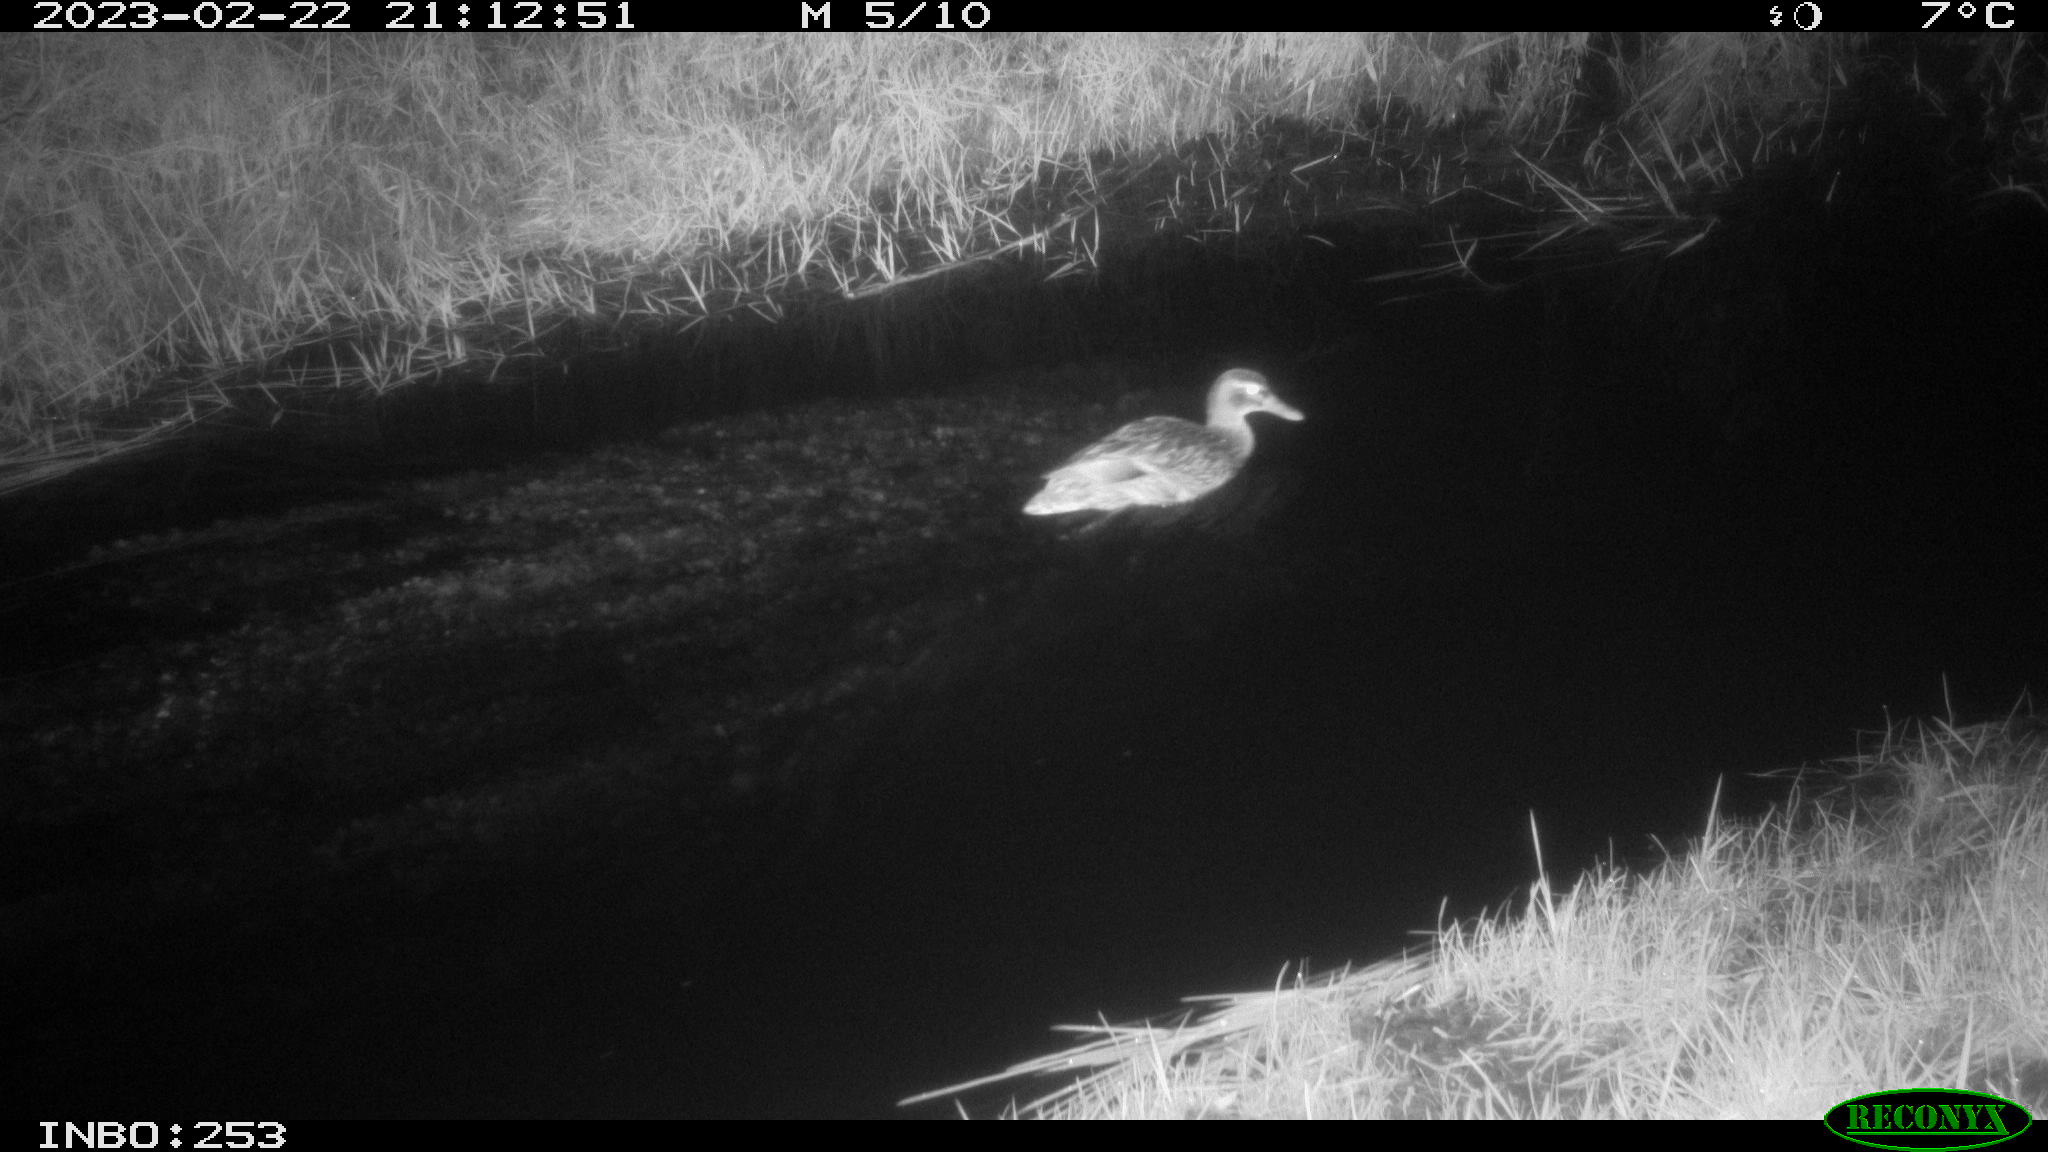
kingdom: Animalia
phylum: Chordata
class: Aves
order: Anseriformes
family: Anatidae
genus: Anas
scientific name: Anas
